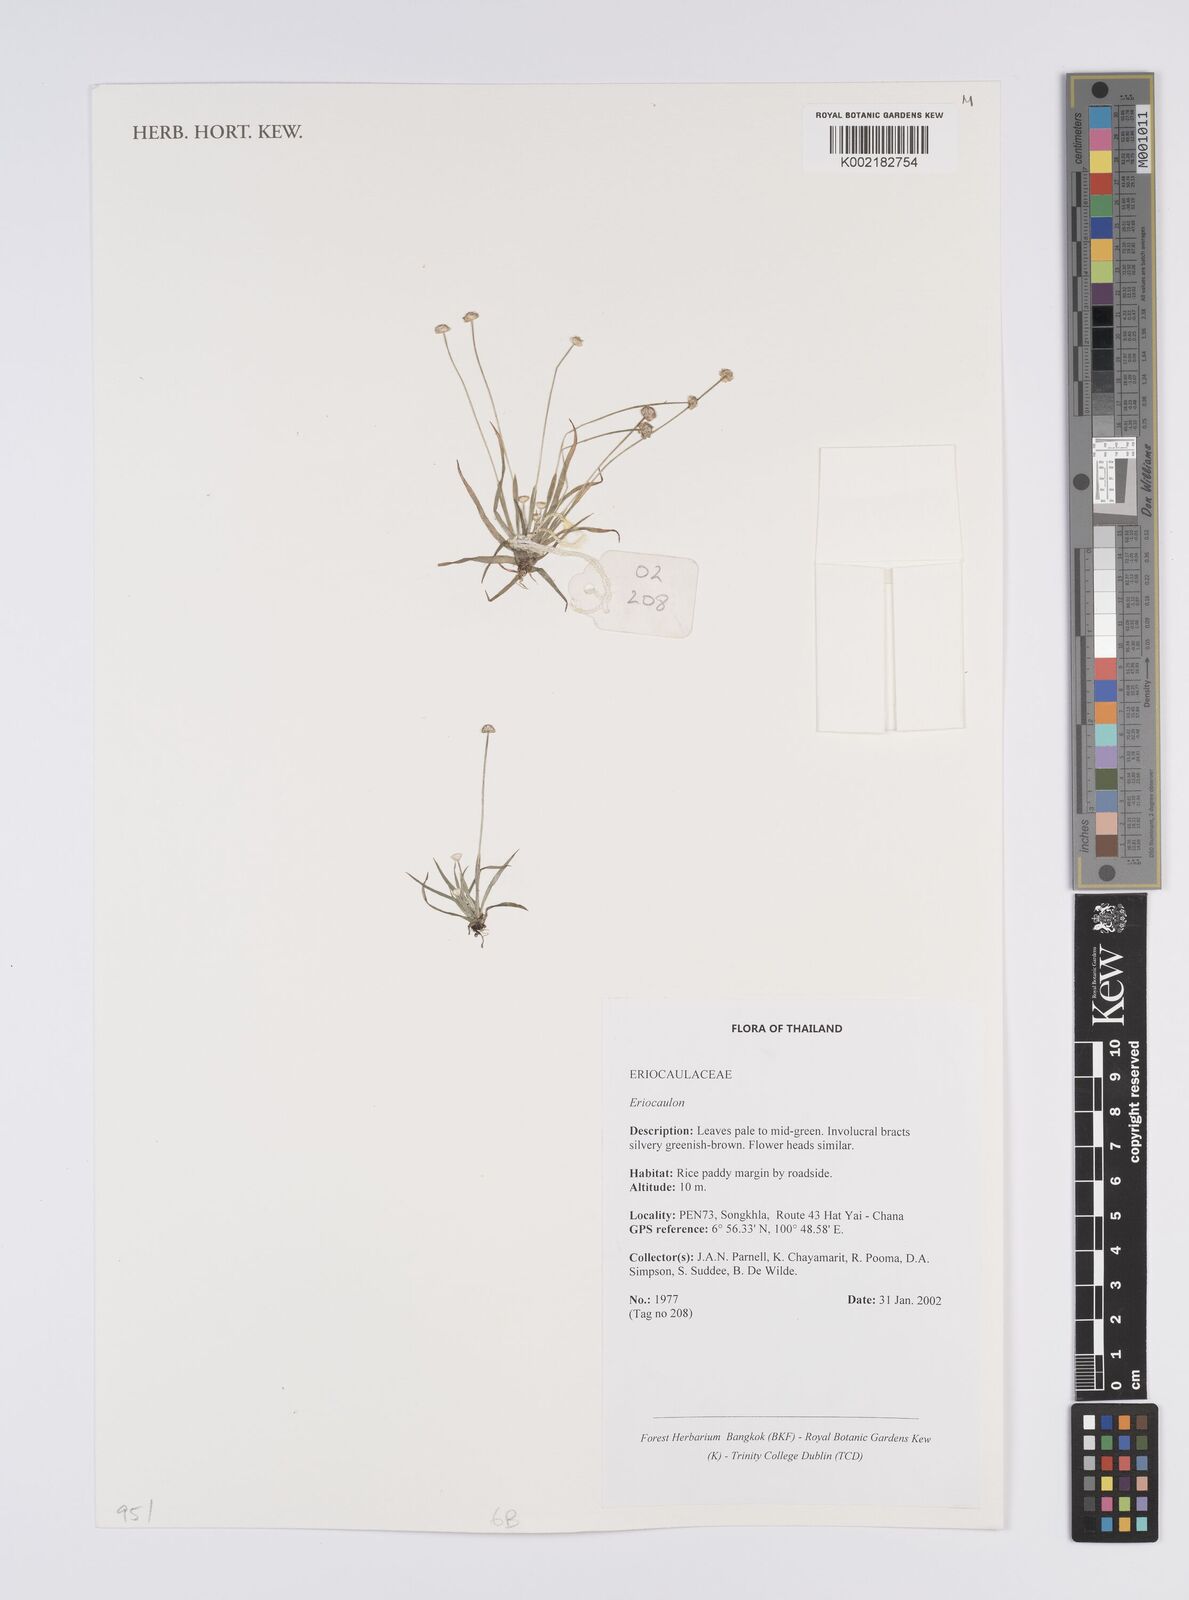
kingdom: Plantae
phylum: Tracheophyta
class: Liliopsida
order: Poales
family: Eriocaulaceae
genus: Eriocaulon
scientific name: Eriocaulon
